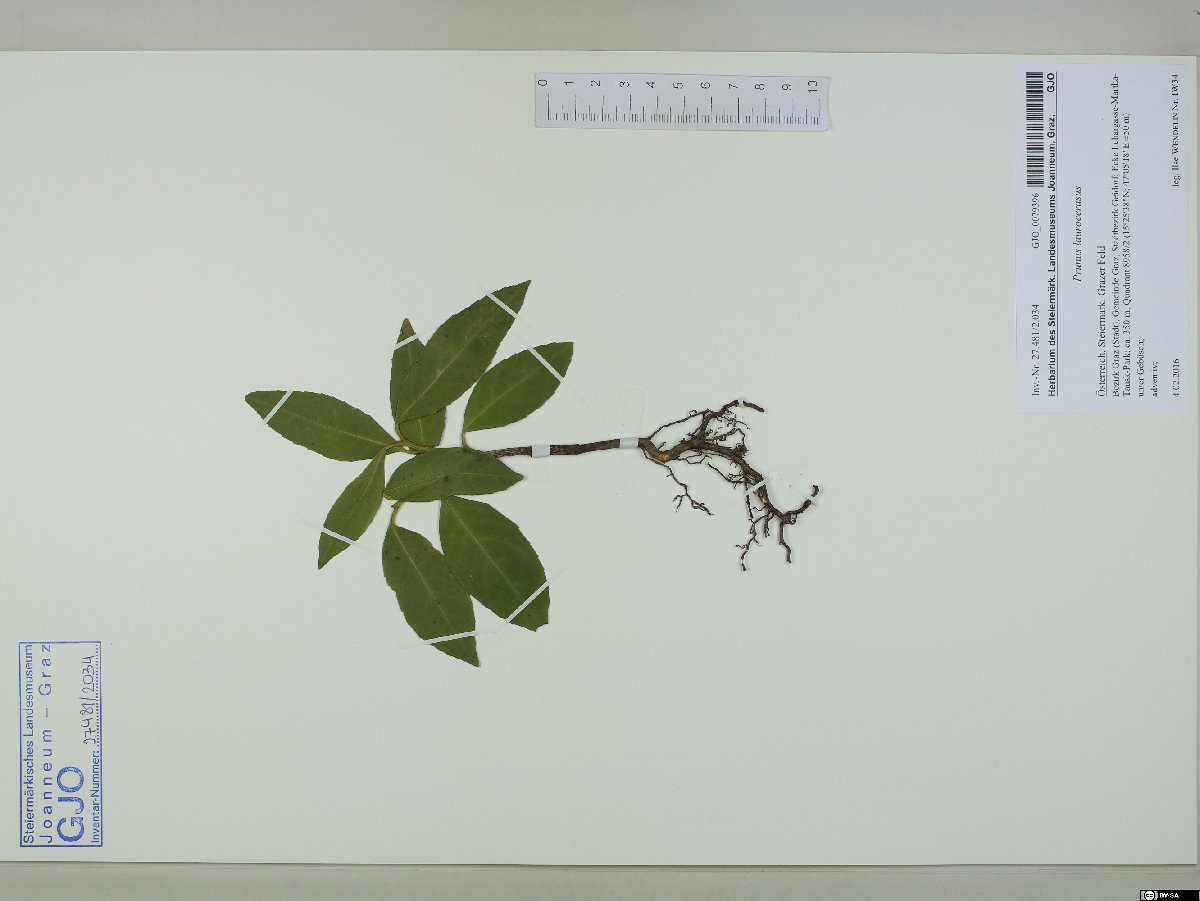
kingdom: Plantae
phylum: Tracheophyta
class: Magnoliopsida
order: Rosales
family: Rosaceae
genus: Prunus
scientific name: Prunus laurocerasus
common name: Cherry laurel
